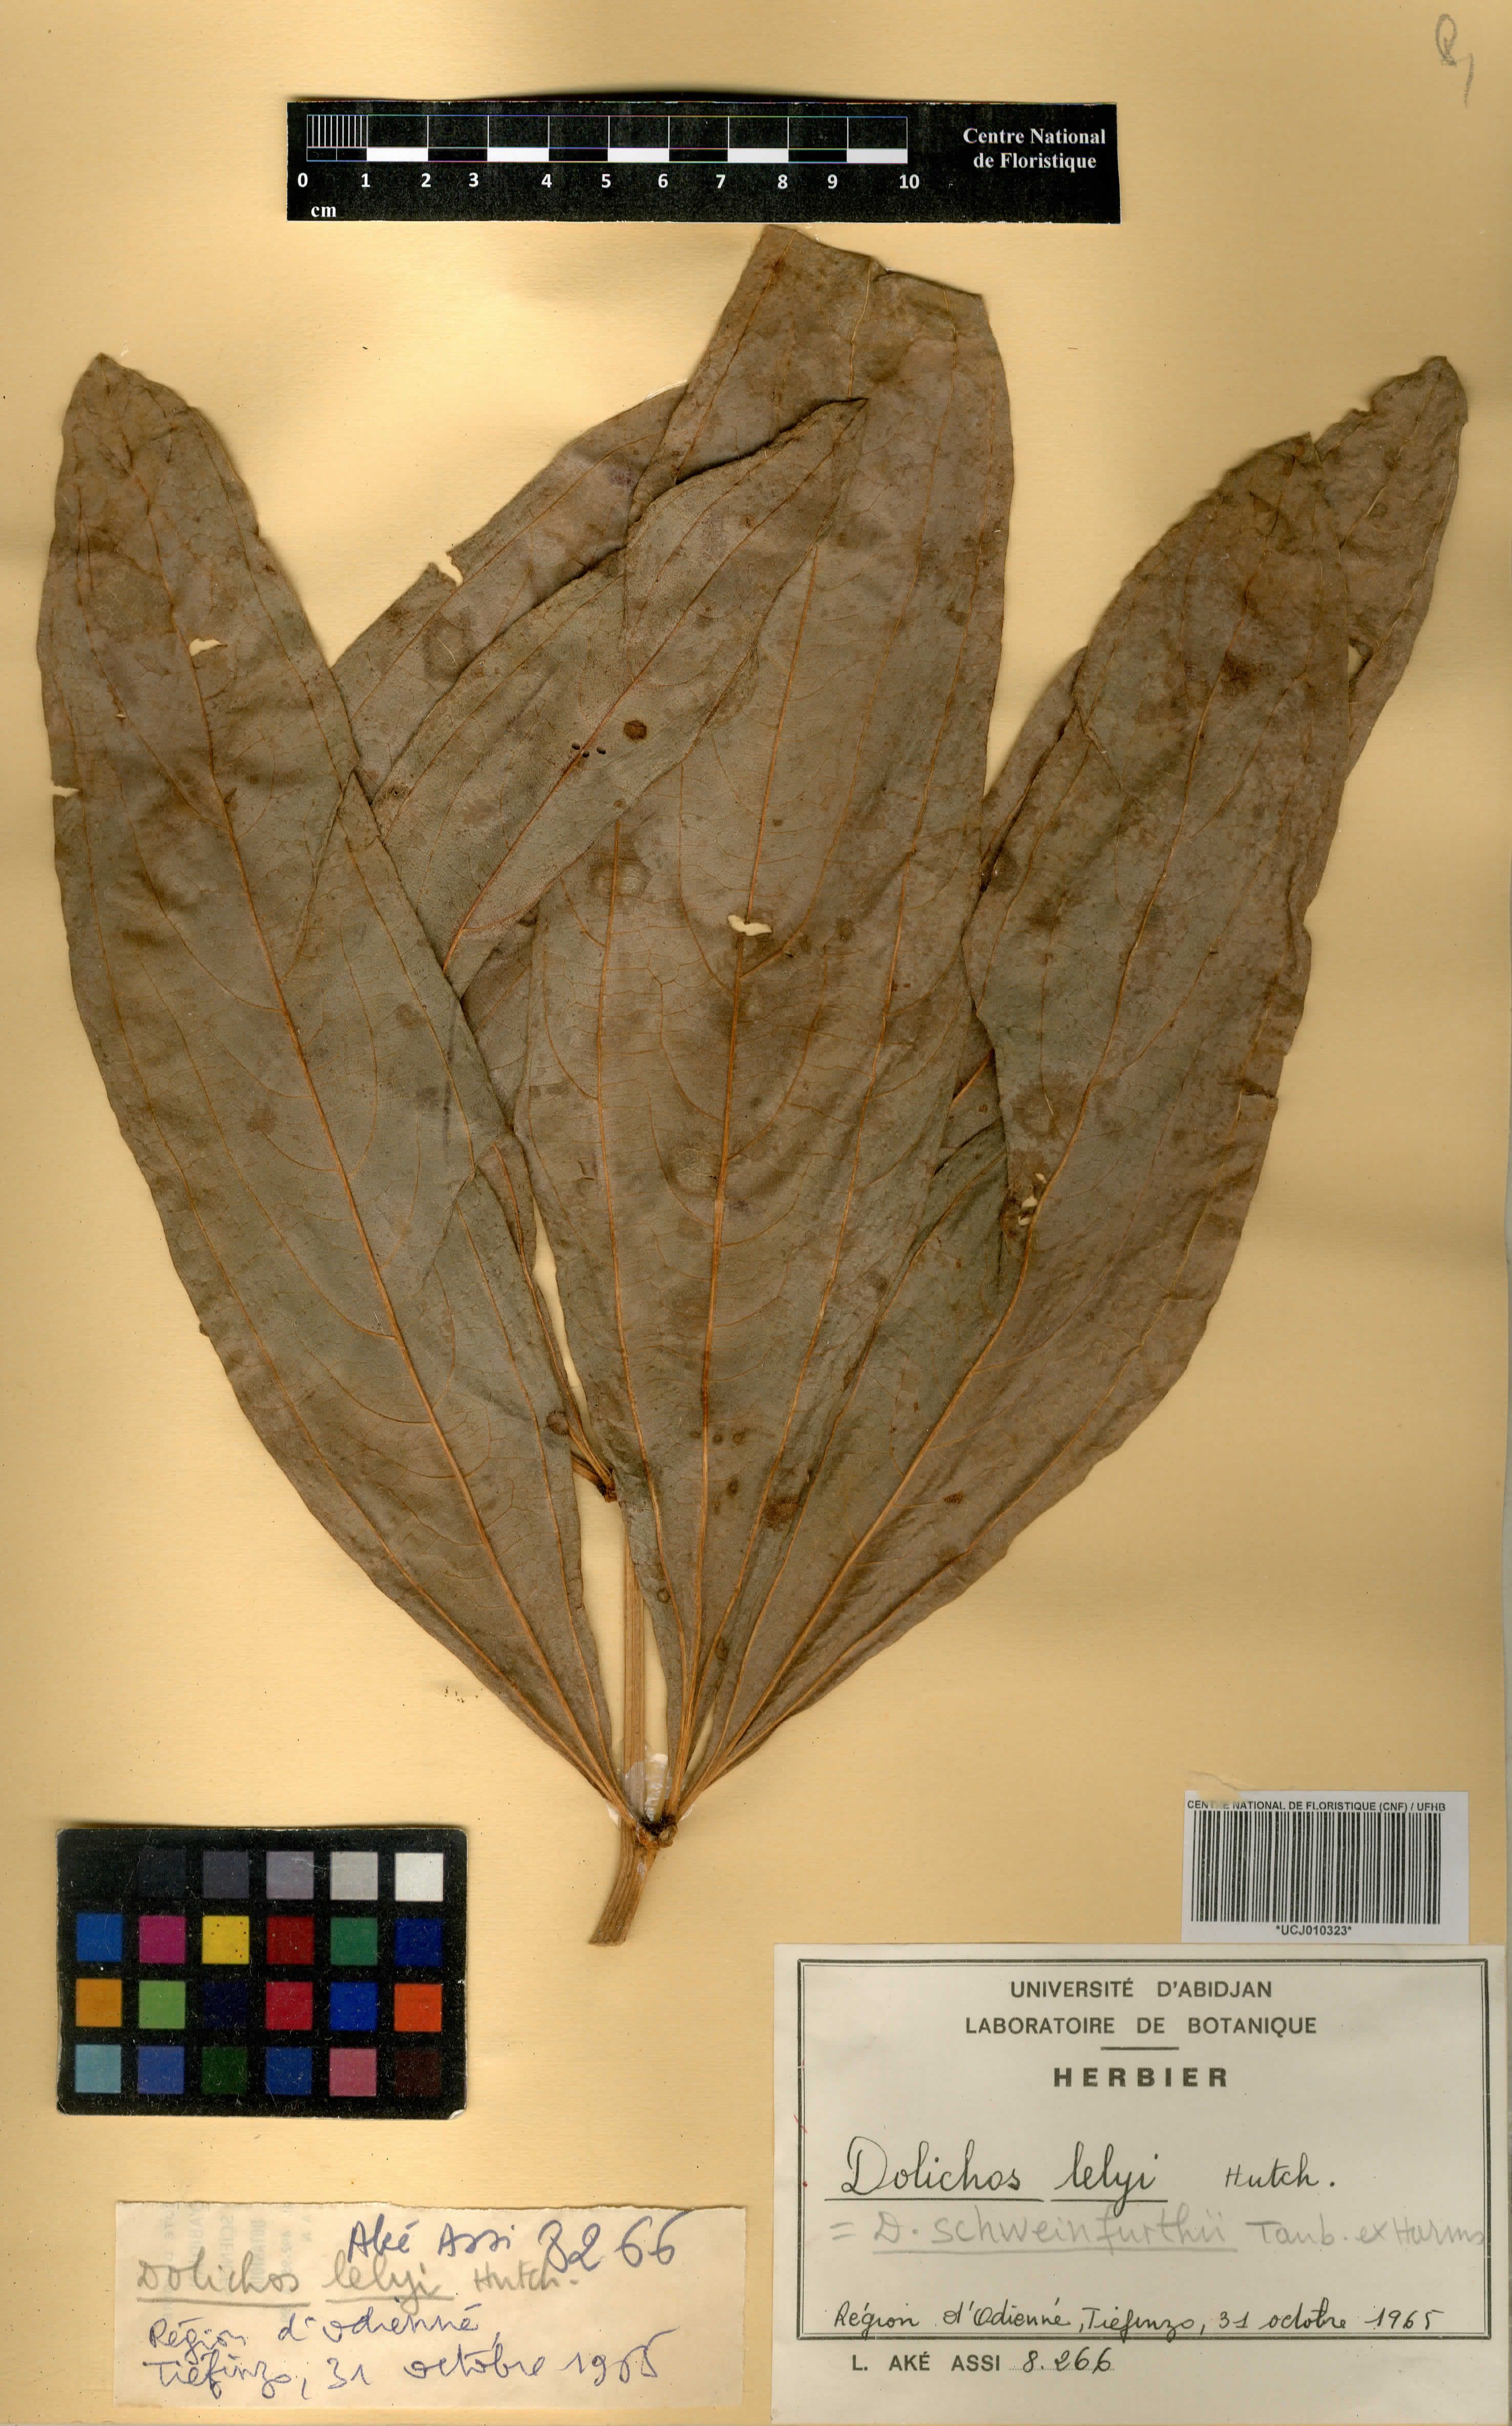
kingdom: Plantae
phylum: Tracheophyta
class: Magnoliopsida
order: Fabales
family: Fabaceae
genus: Dolichos
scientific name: Dolichos schweinfurthii
